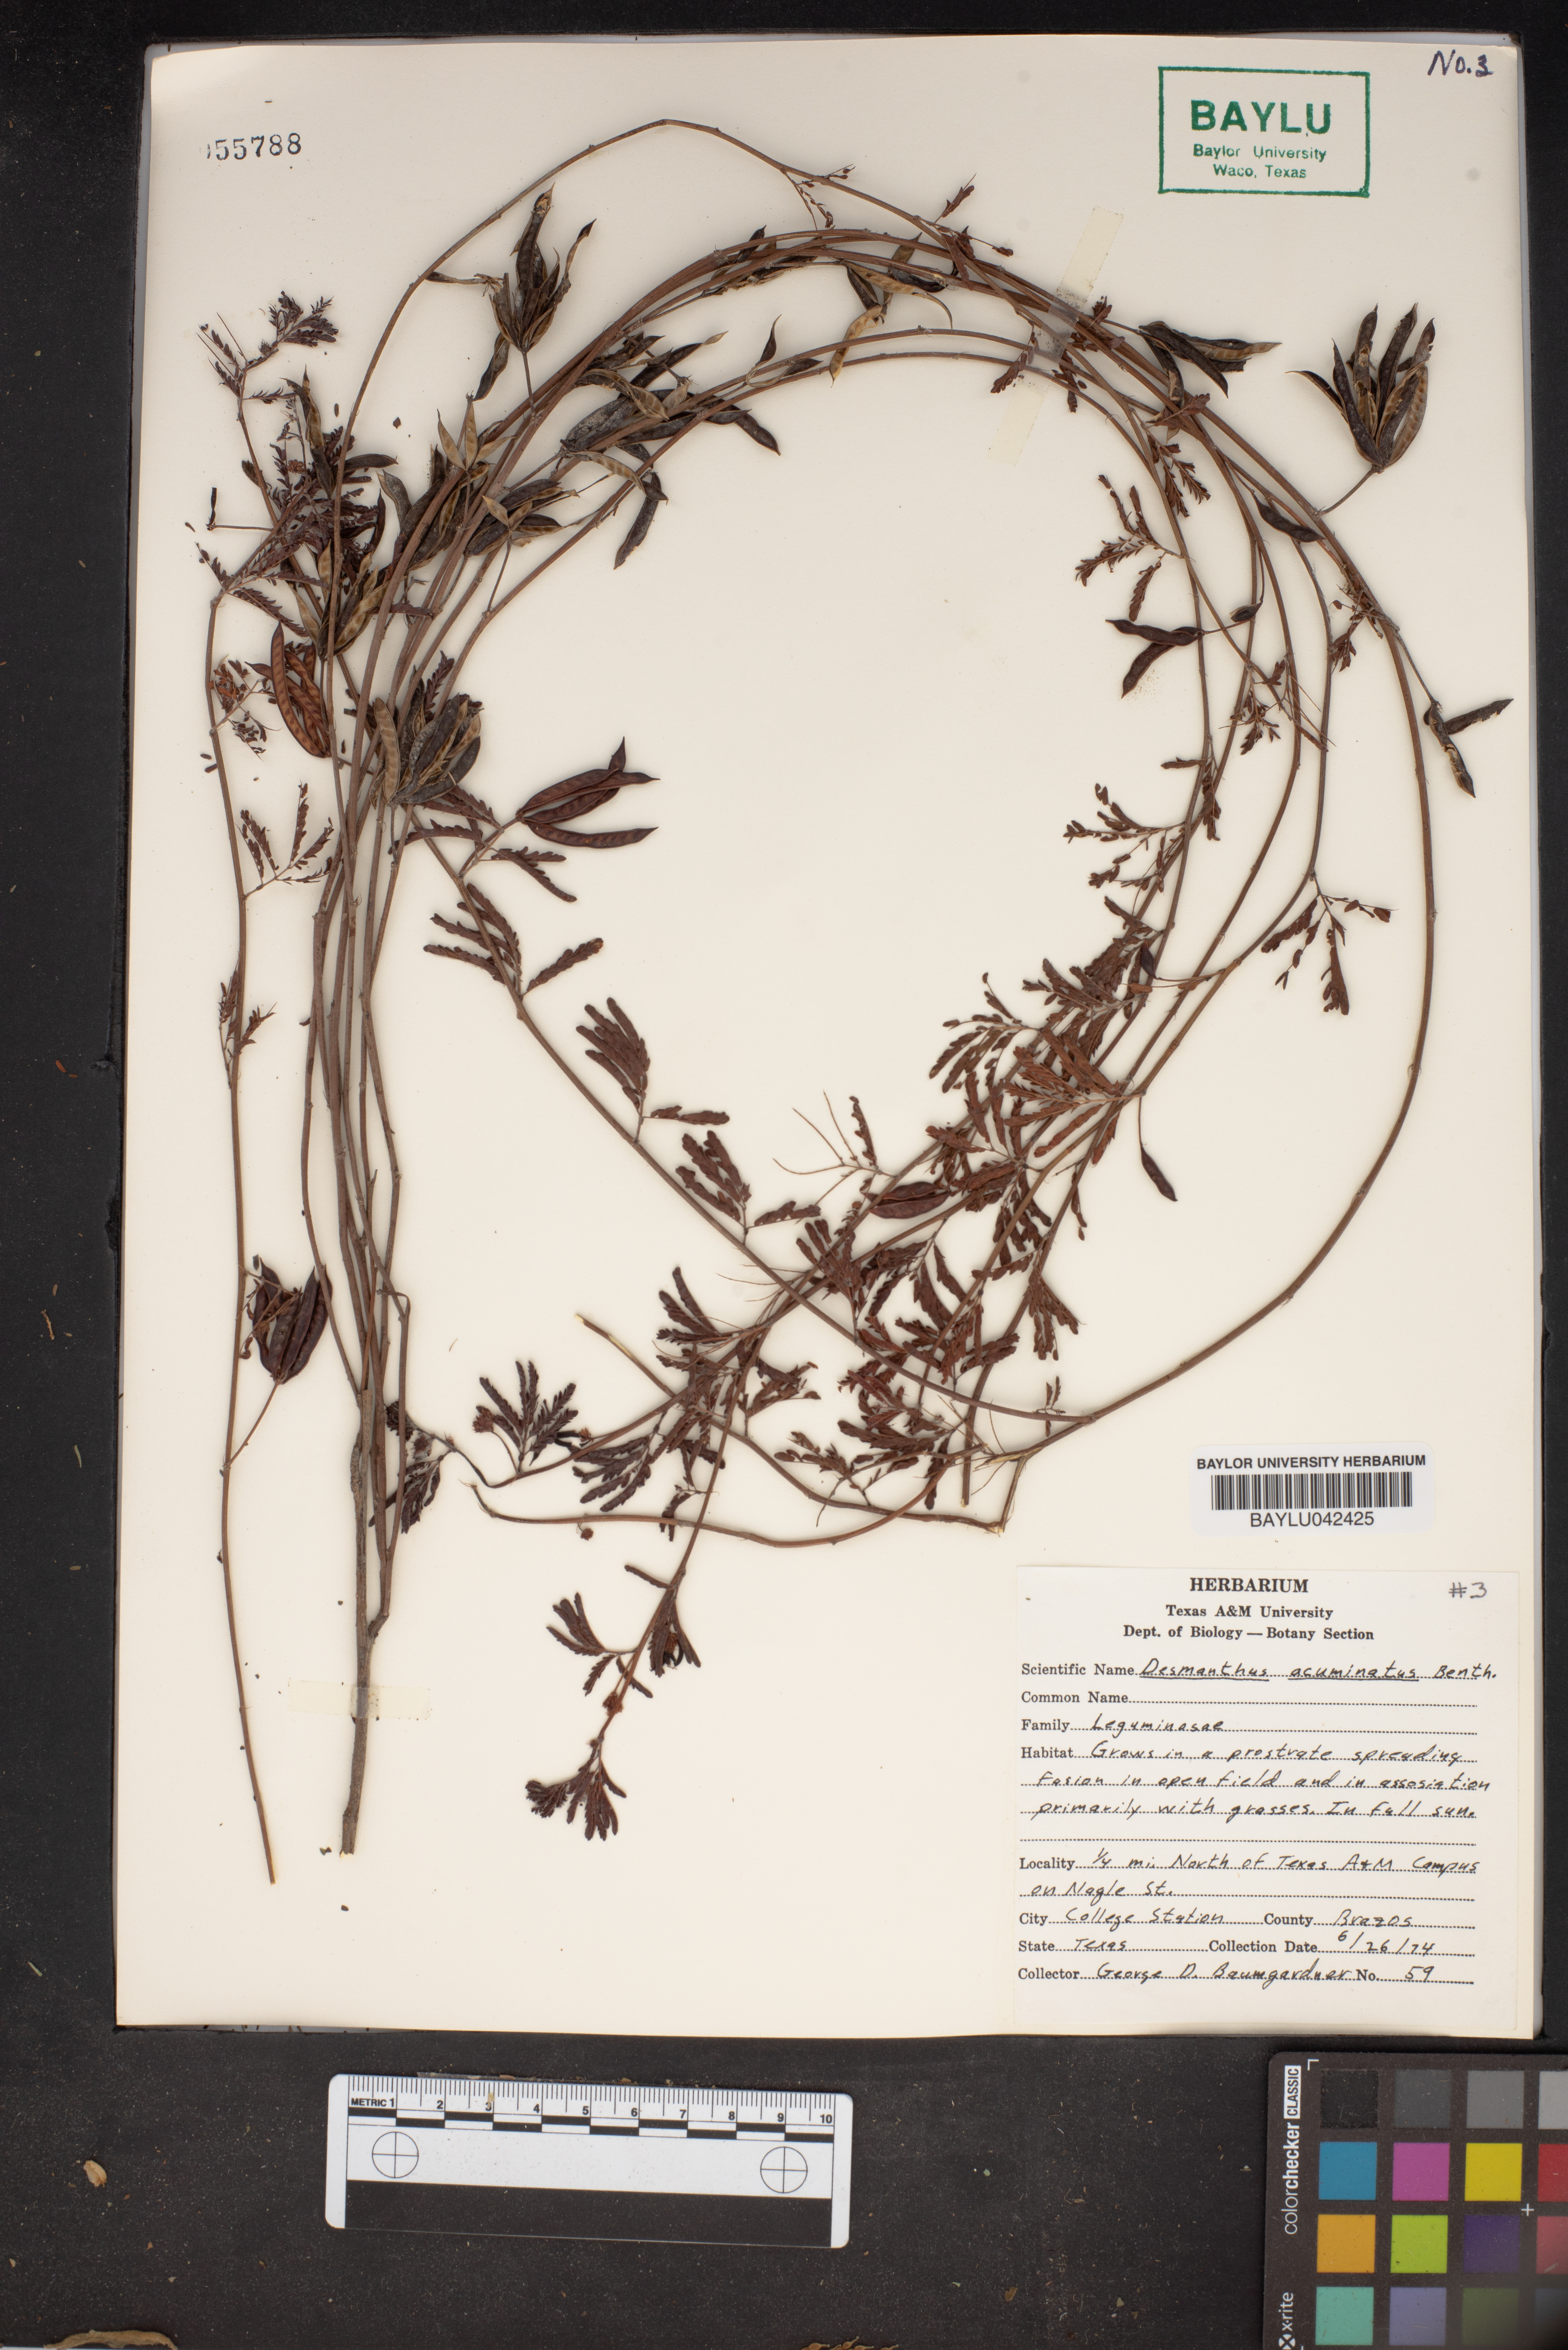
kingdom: Plantae
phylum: Tracheophyta
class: Magnoliopsida
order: Fabales
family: Fabaceae
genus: Desmanthus
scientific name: Desmanthus acuminatus
